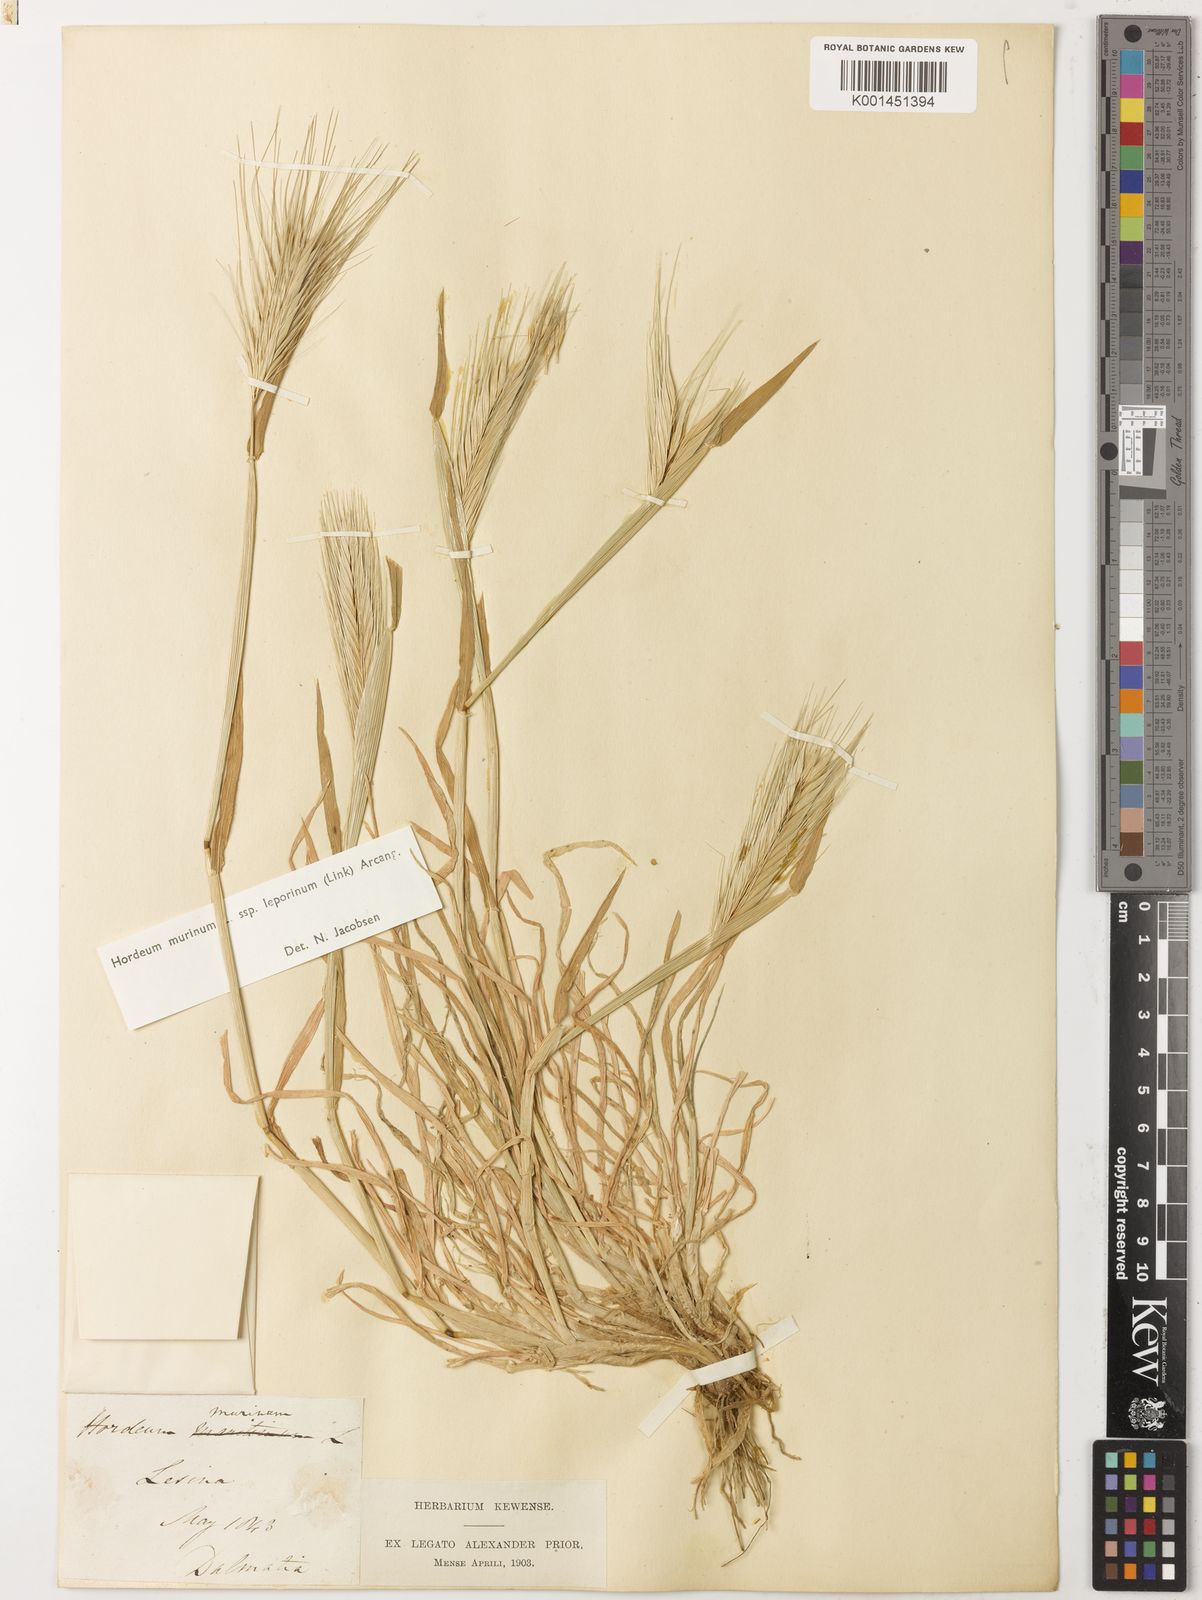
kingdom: Plantae
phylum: Tracheophyta
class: Liliopsida
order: Poales
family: Poaceae
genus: Hordeum
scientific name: Hordeum murinum
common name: Wall barley
